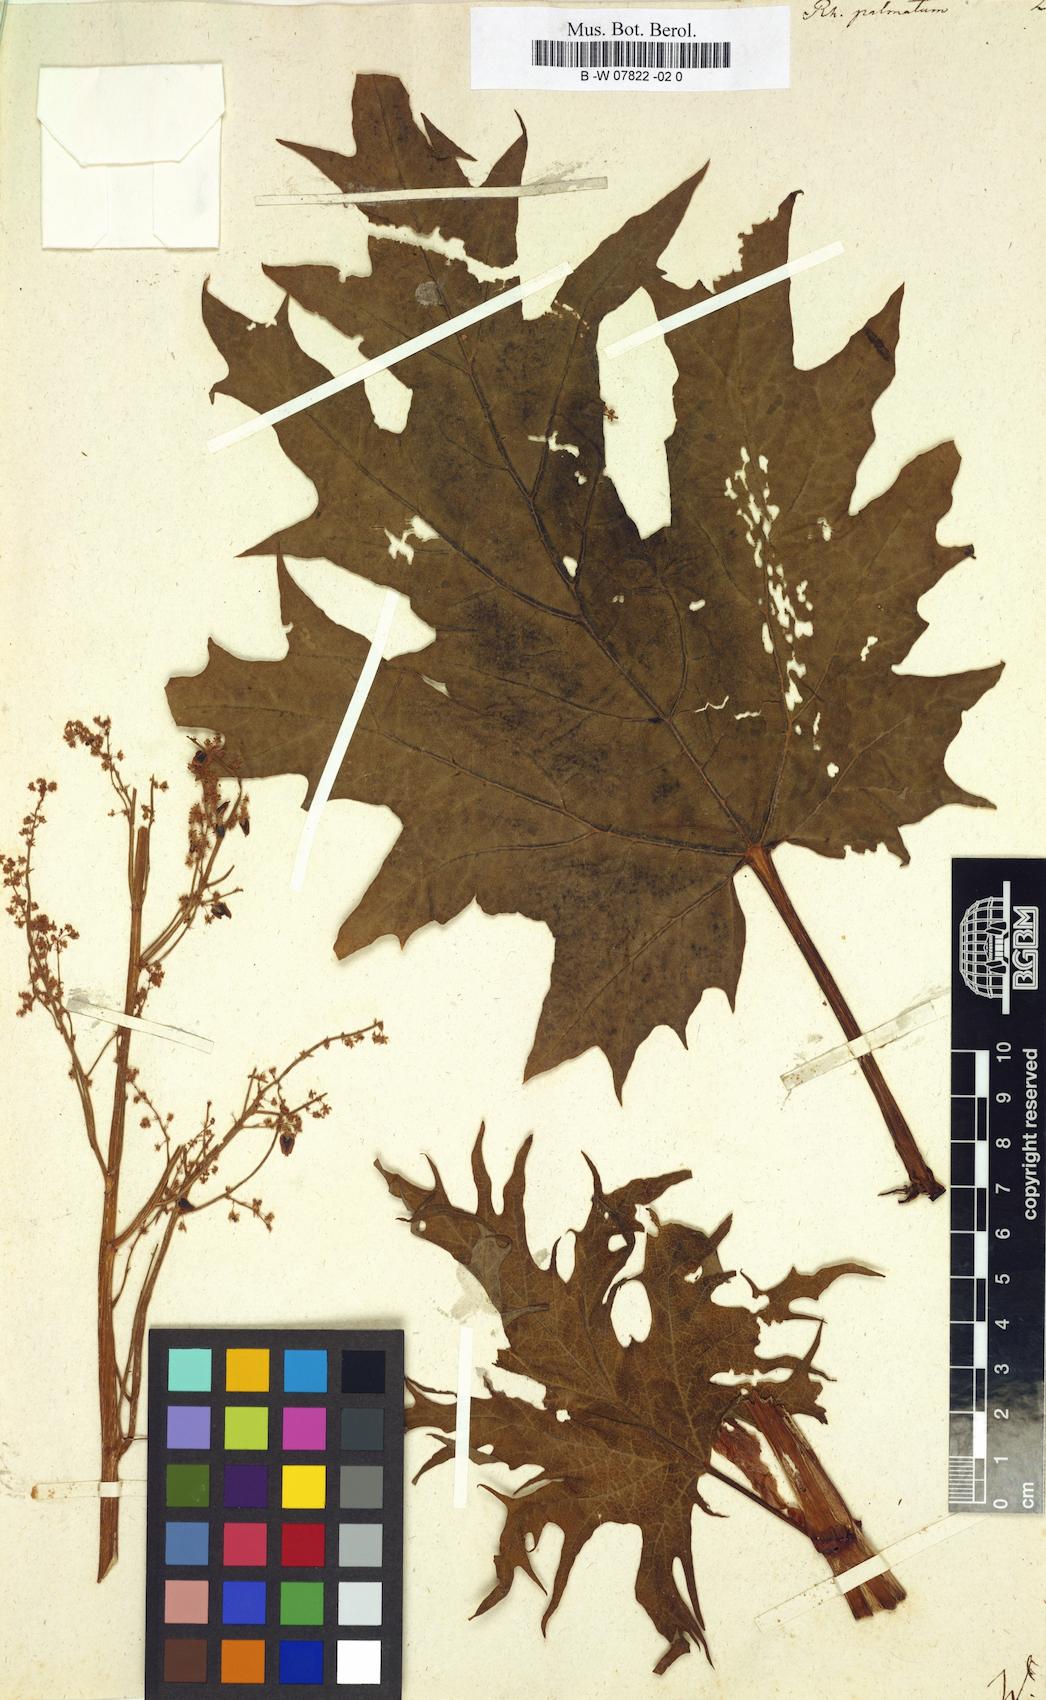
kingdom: Plantae
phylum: Tracheophyta
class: Magnoliopsida
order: Caryophyllales
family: Polygonaceae
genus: Rheum
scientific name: Rheum palmatum
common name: Ornamental rhubarb
